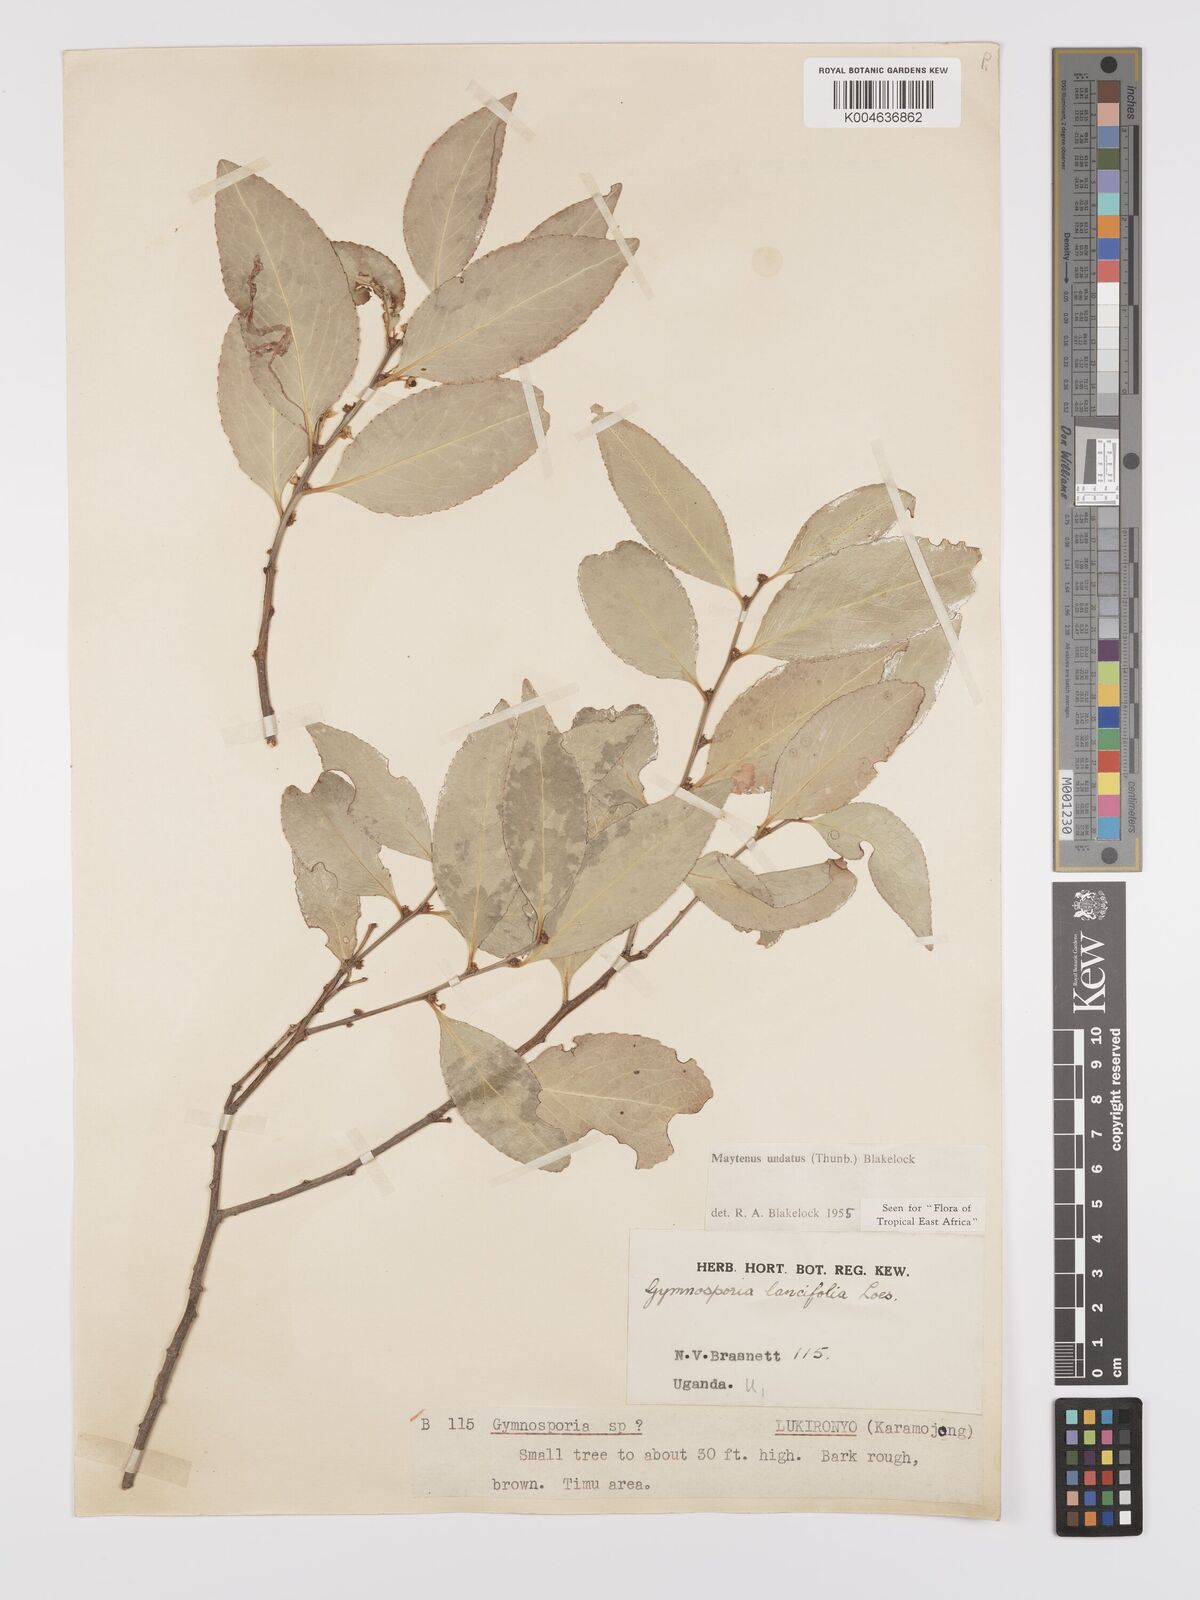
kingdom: Plantae
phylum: Tracheophyta
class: Magnoliopsida
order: Celastrales
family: Celastraceae
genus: Gymnosporia
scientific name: Gymnosporia undata
